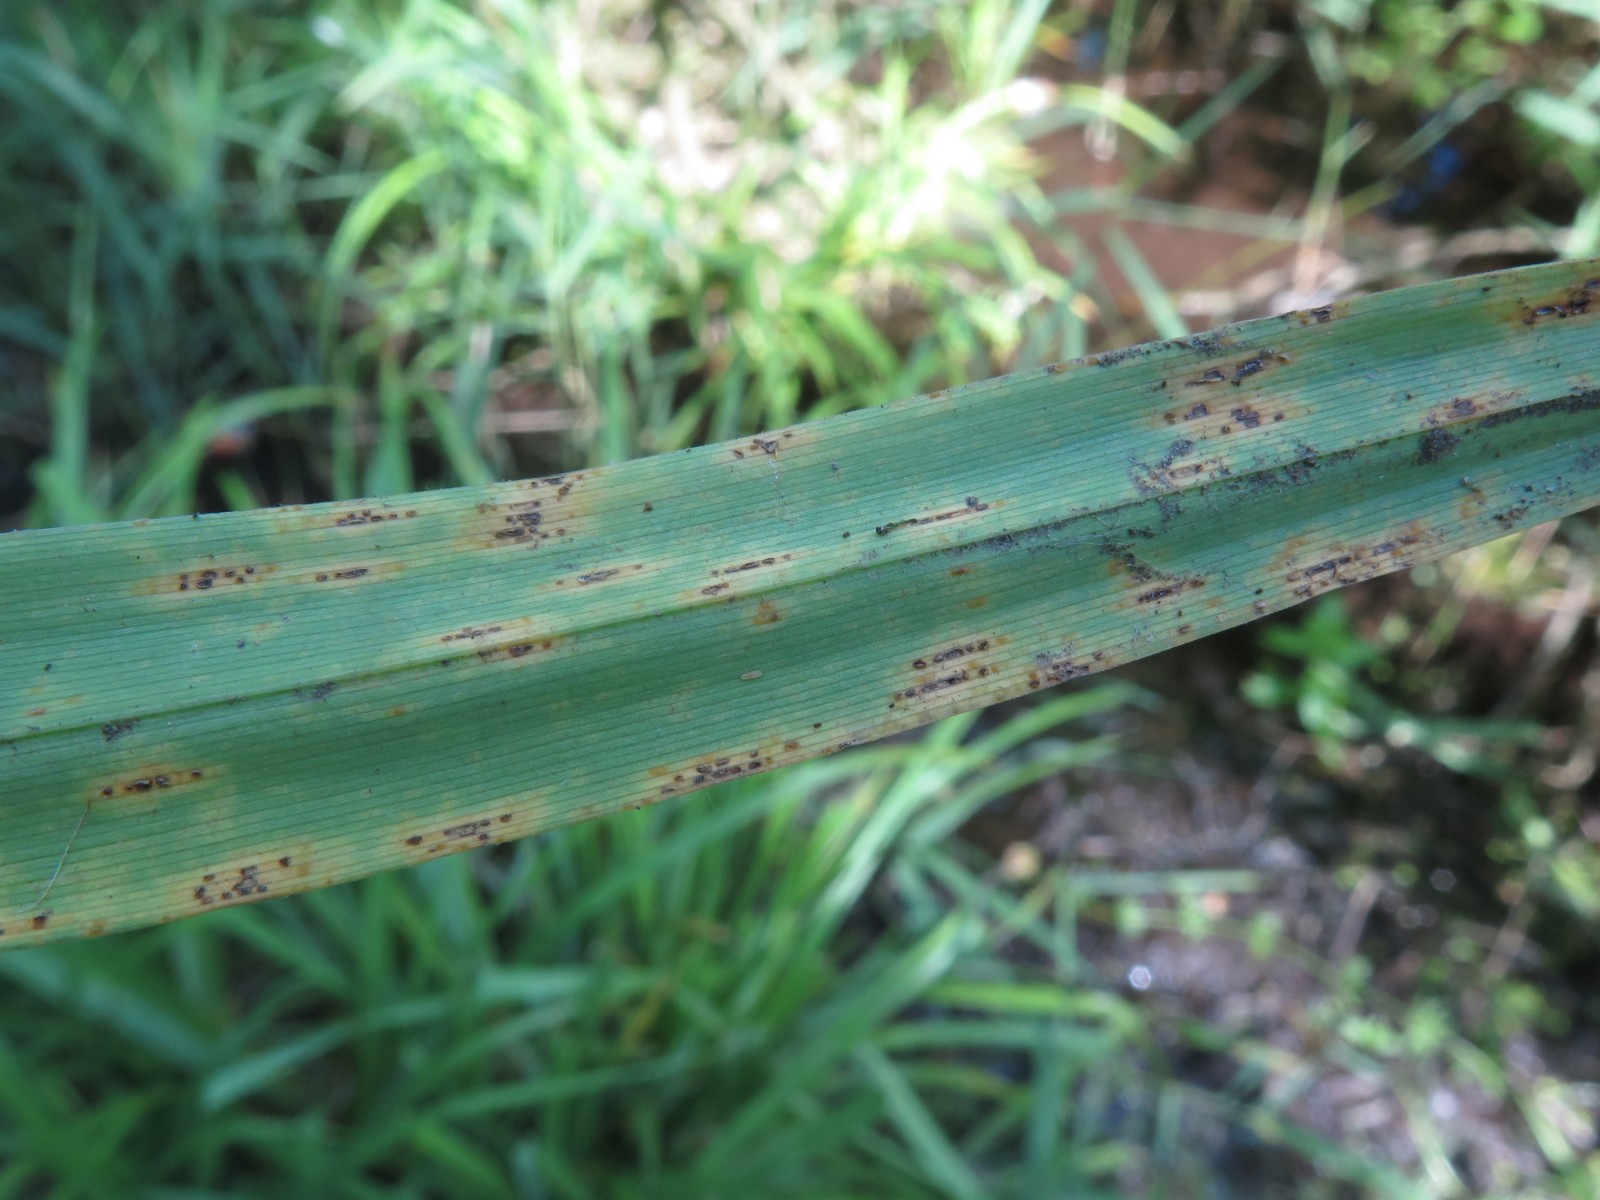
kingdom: Fungi
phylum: Basidiomycota
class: Pucciniomycetes
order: Pucciniales
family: Pucciniaceae
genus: Puccinia
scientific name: Puccinia
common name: tvecellerust
